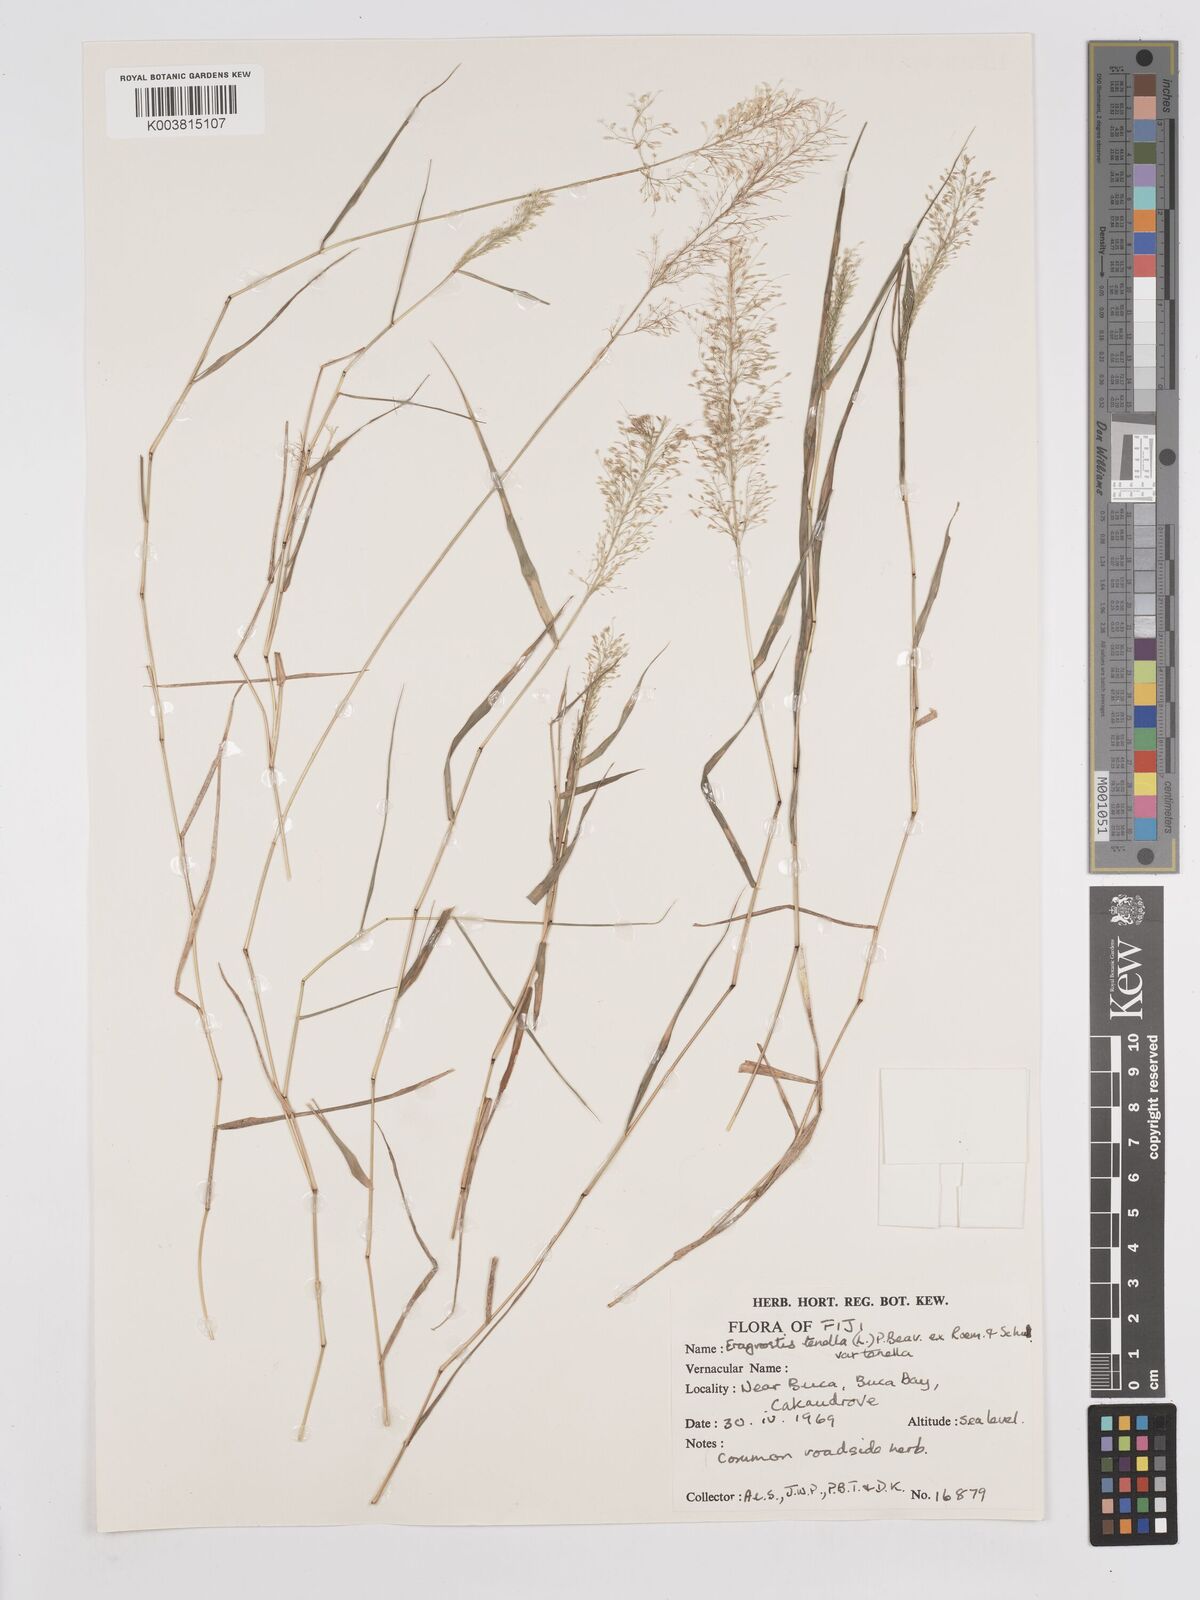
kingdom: Plantae
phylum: Tracheophyta
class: Liliopsida
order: Poales
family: Poaceae
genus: Eragrostis
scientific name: Eragrostis tenella
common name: Japanese lovegrass
